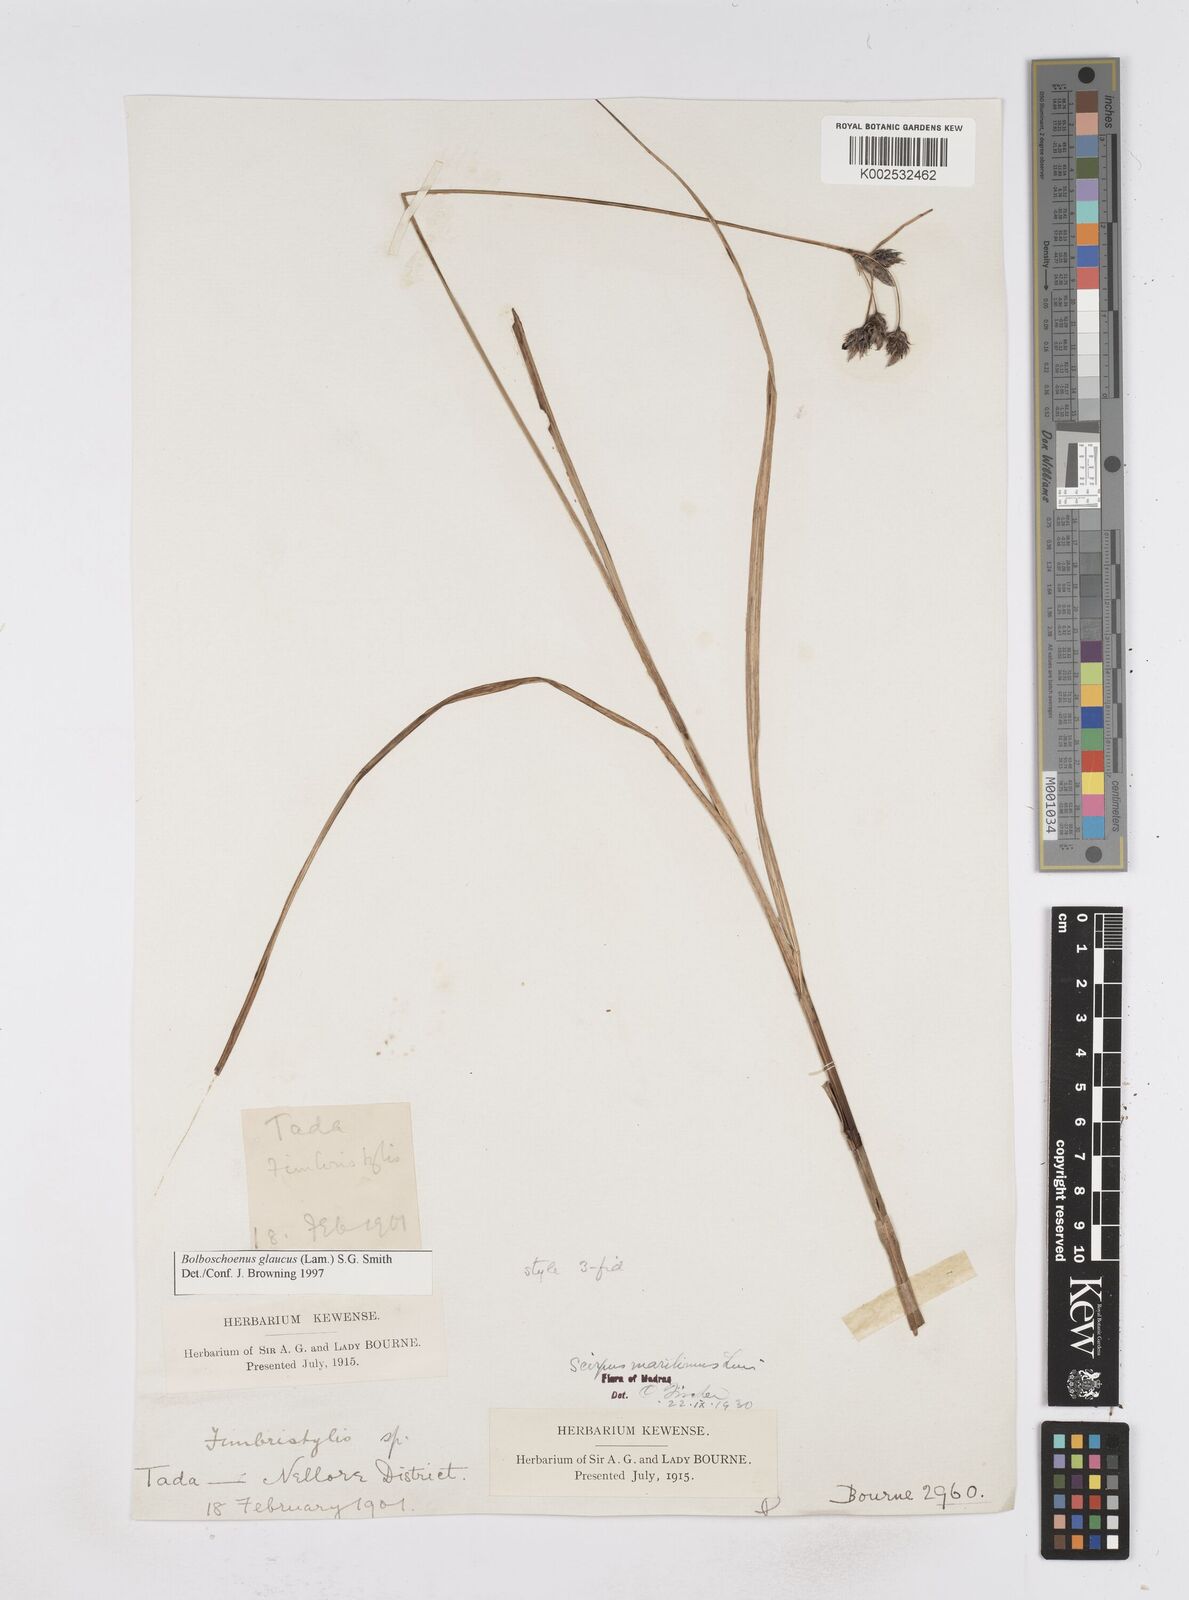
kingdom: Plantae
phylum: Tracheophyta
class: Liliopsida
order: Poales
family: Cyperaceae
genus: Bolboschoenus
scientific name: Bolboschoenus maritimus
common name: Sea club-rush
